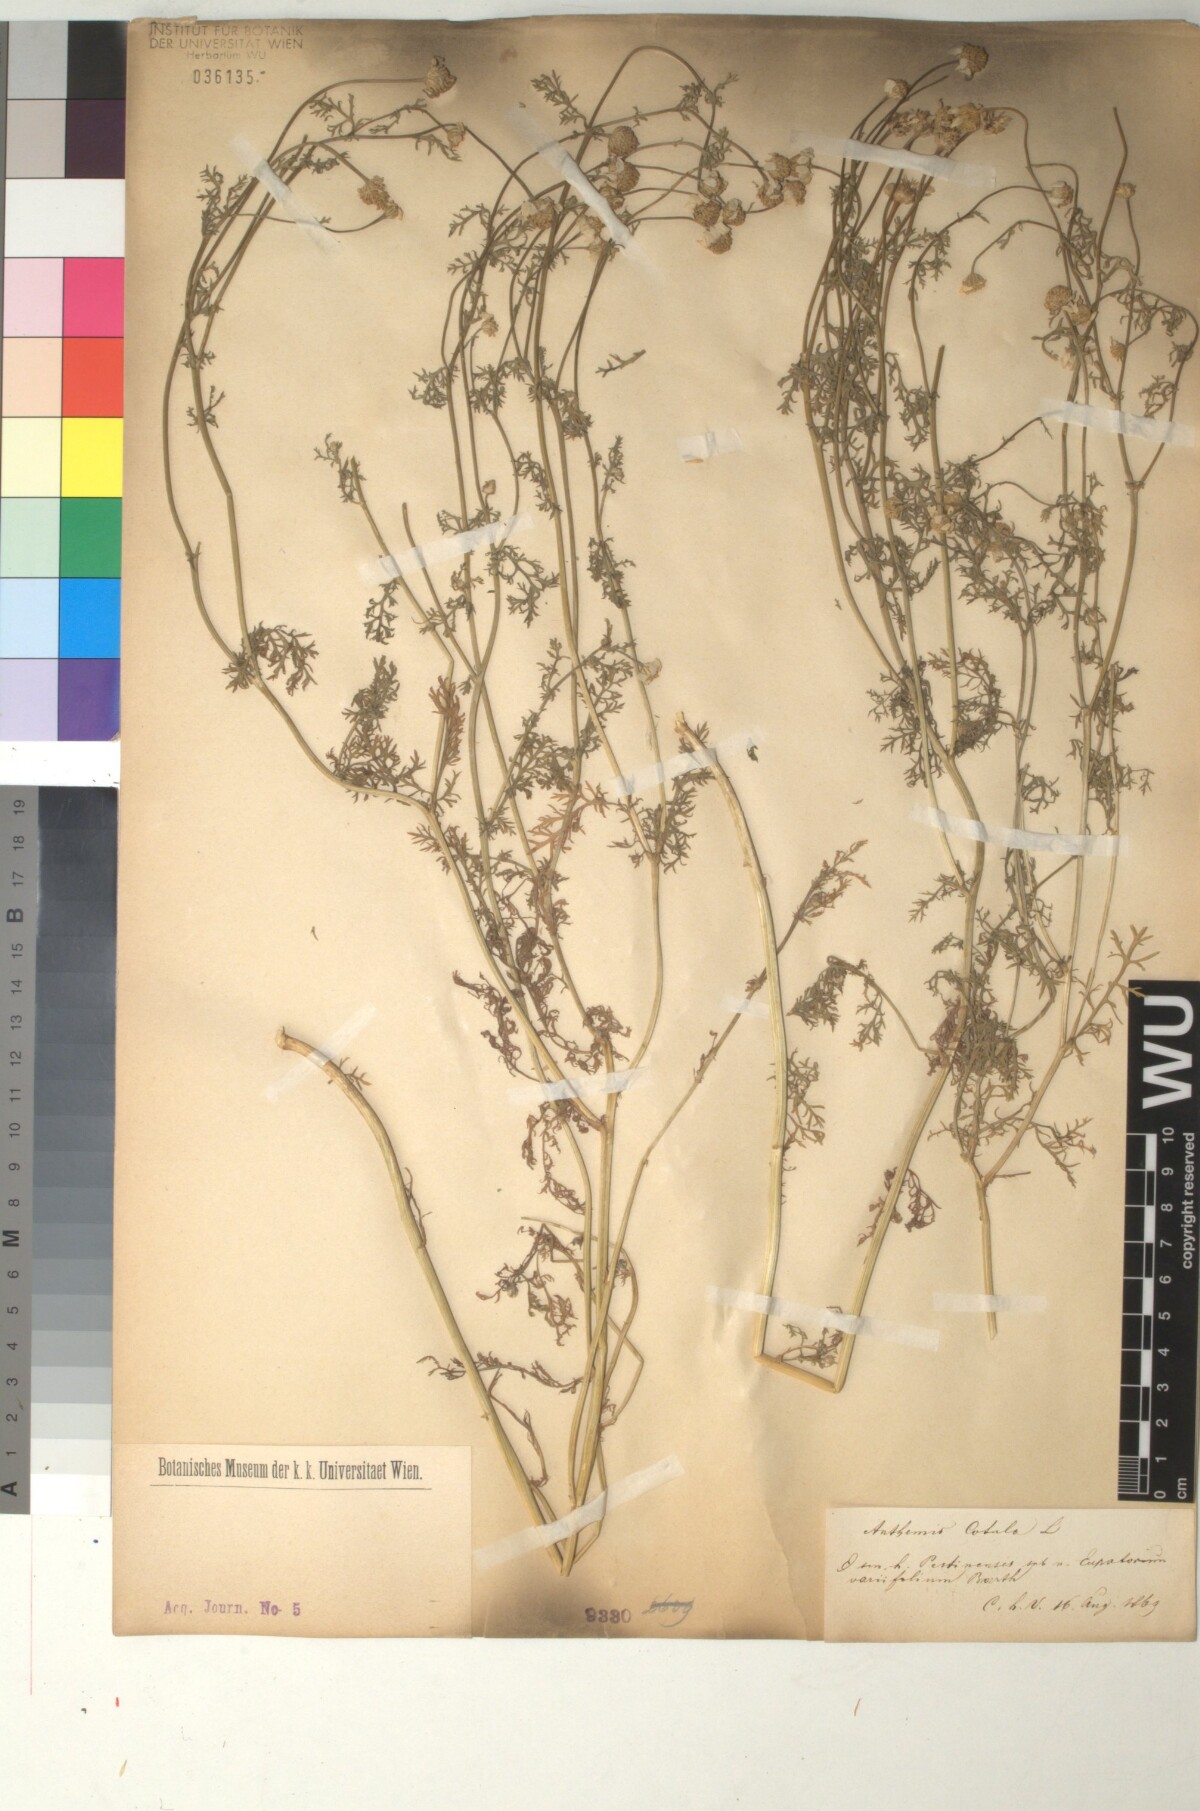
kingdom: Plantae
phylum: Tracheophyta
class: Magnoliopsida
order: Asterales
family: Asteraceae
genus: Anthemis
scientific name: Anthemis cotula
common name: Stinking chamomile
